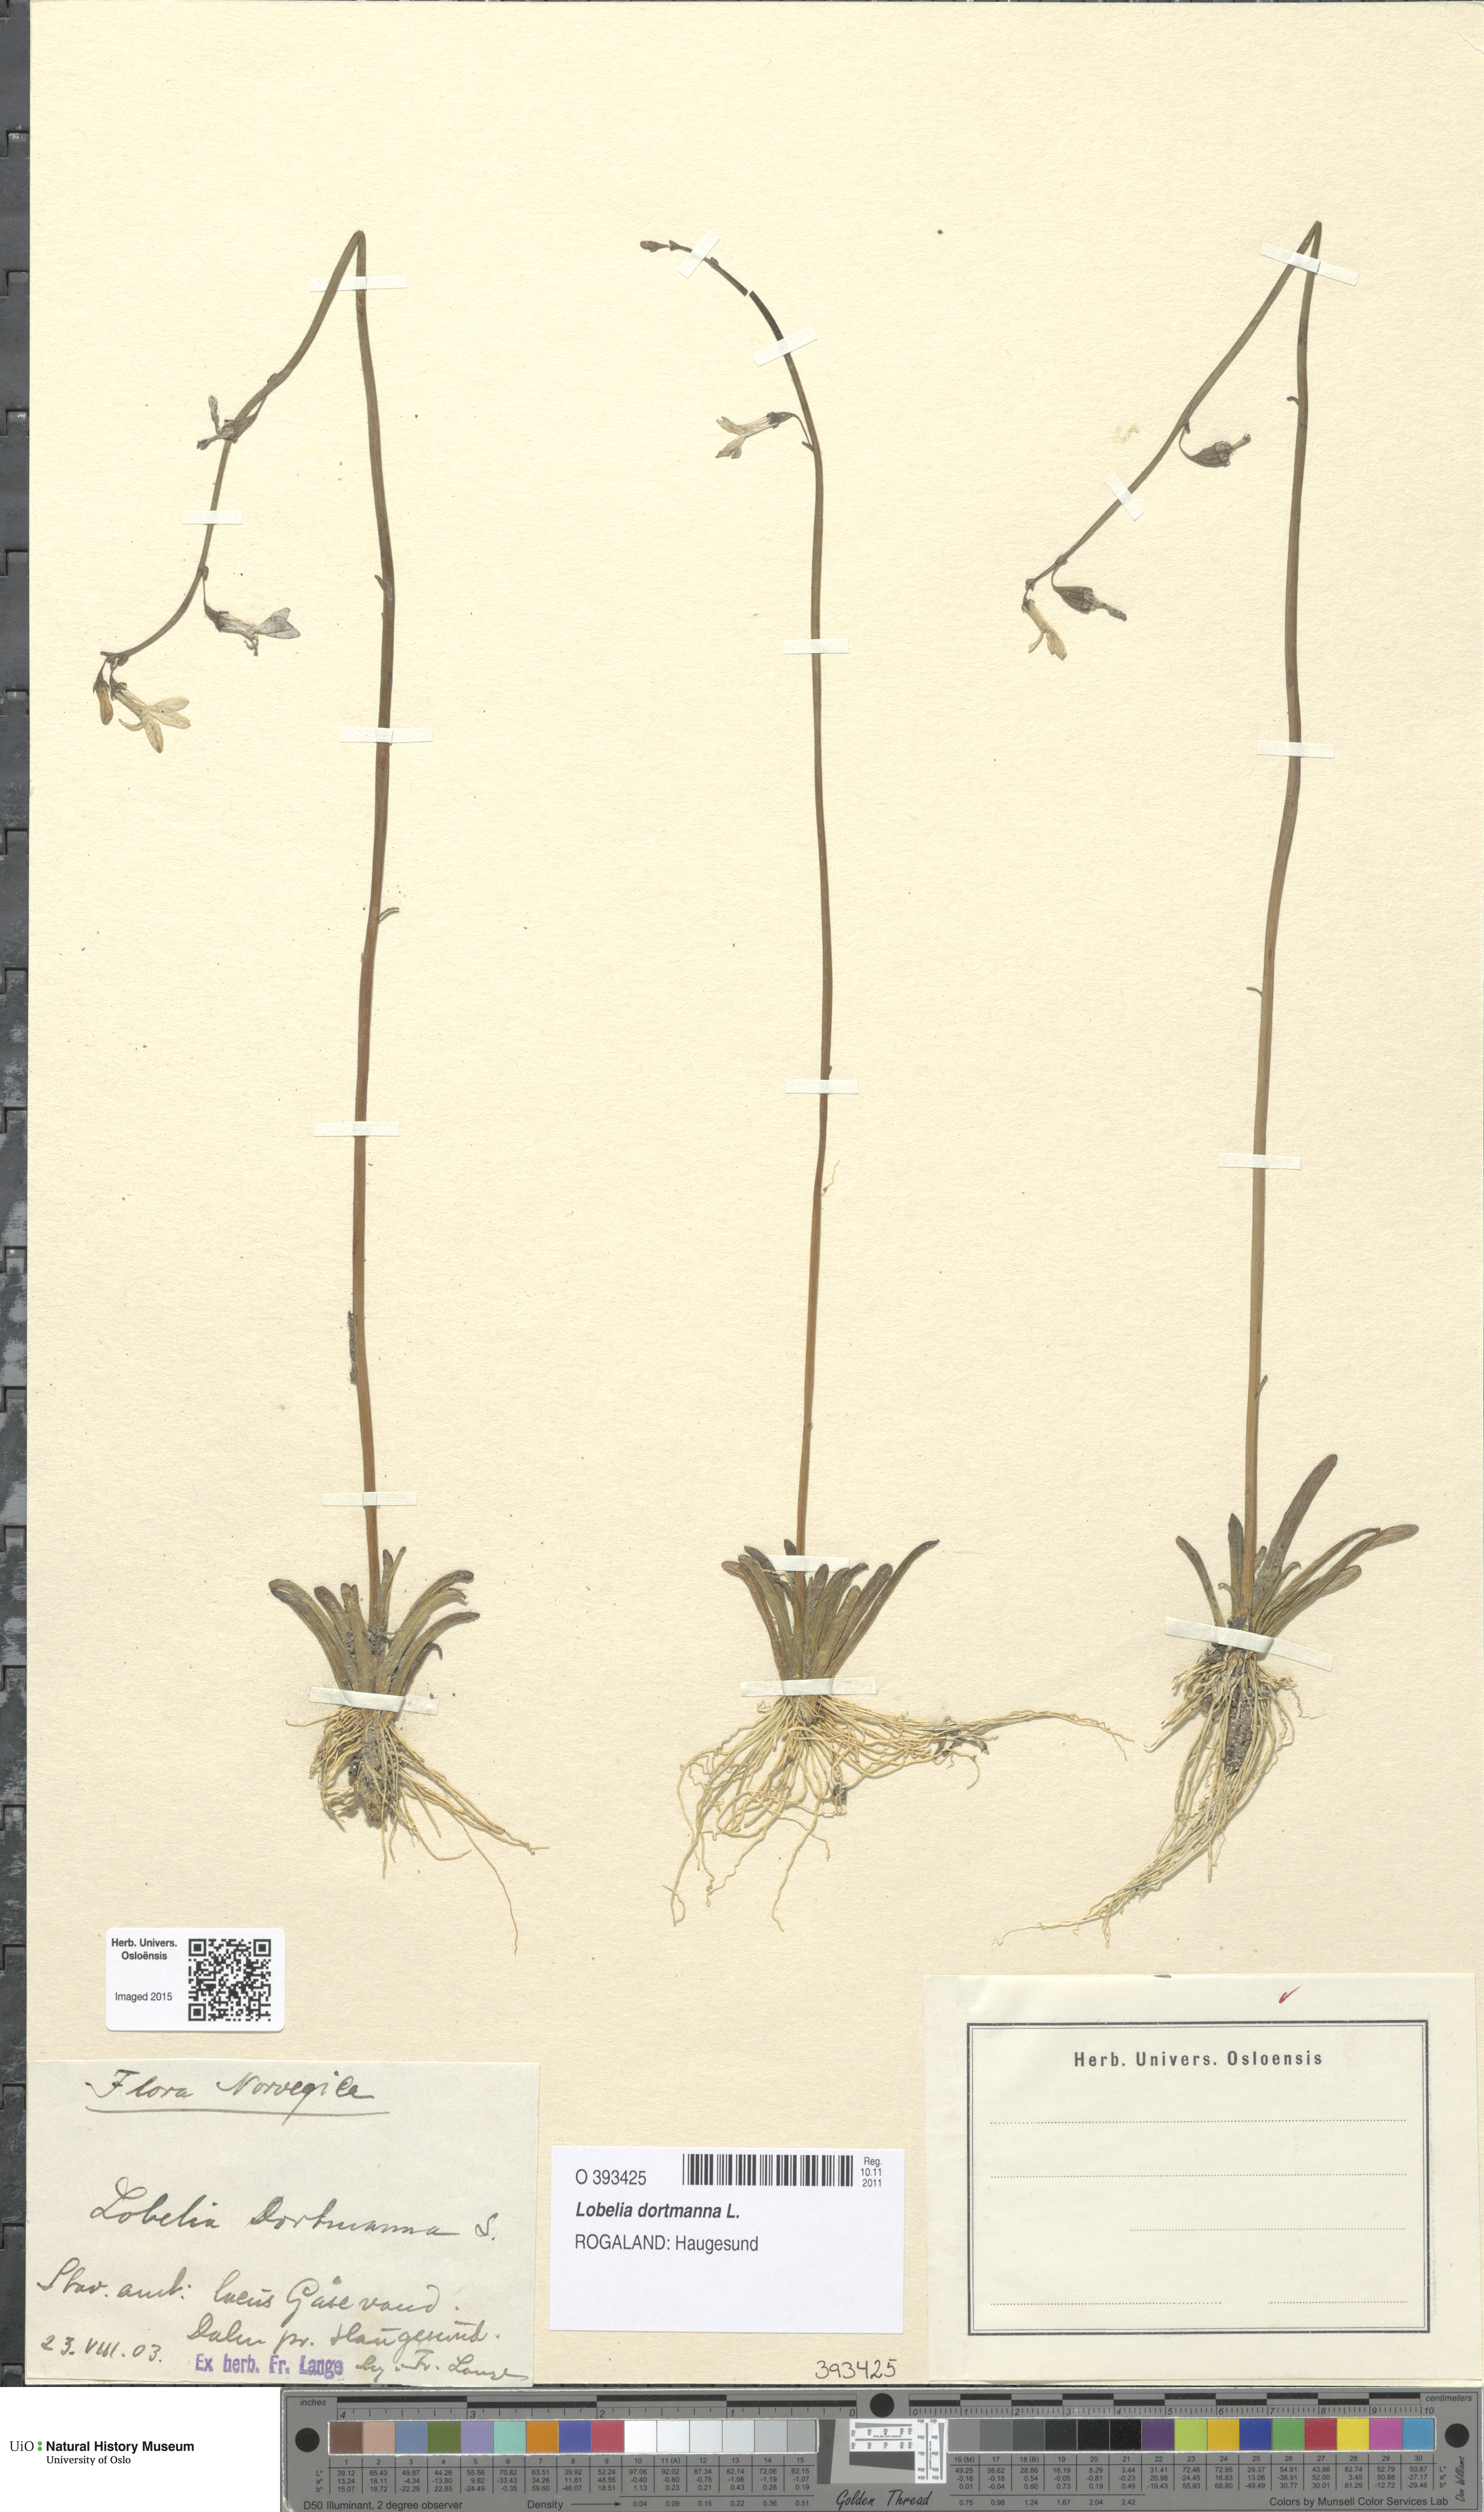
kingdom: Plantae
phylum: Tracheophyta
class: Magnoliopsida
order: Asterales
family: Campanulaceae
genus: Lobelia
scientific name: Lobelia dortmanna
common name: Water lobelia
